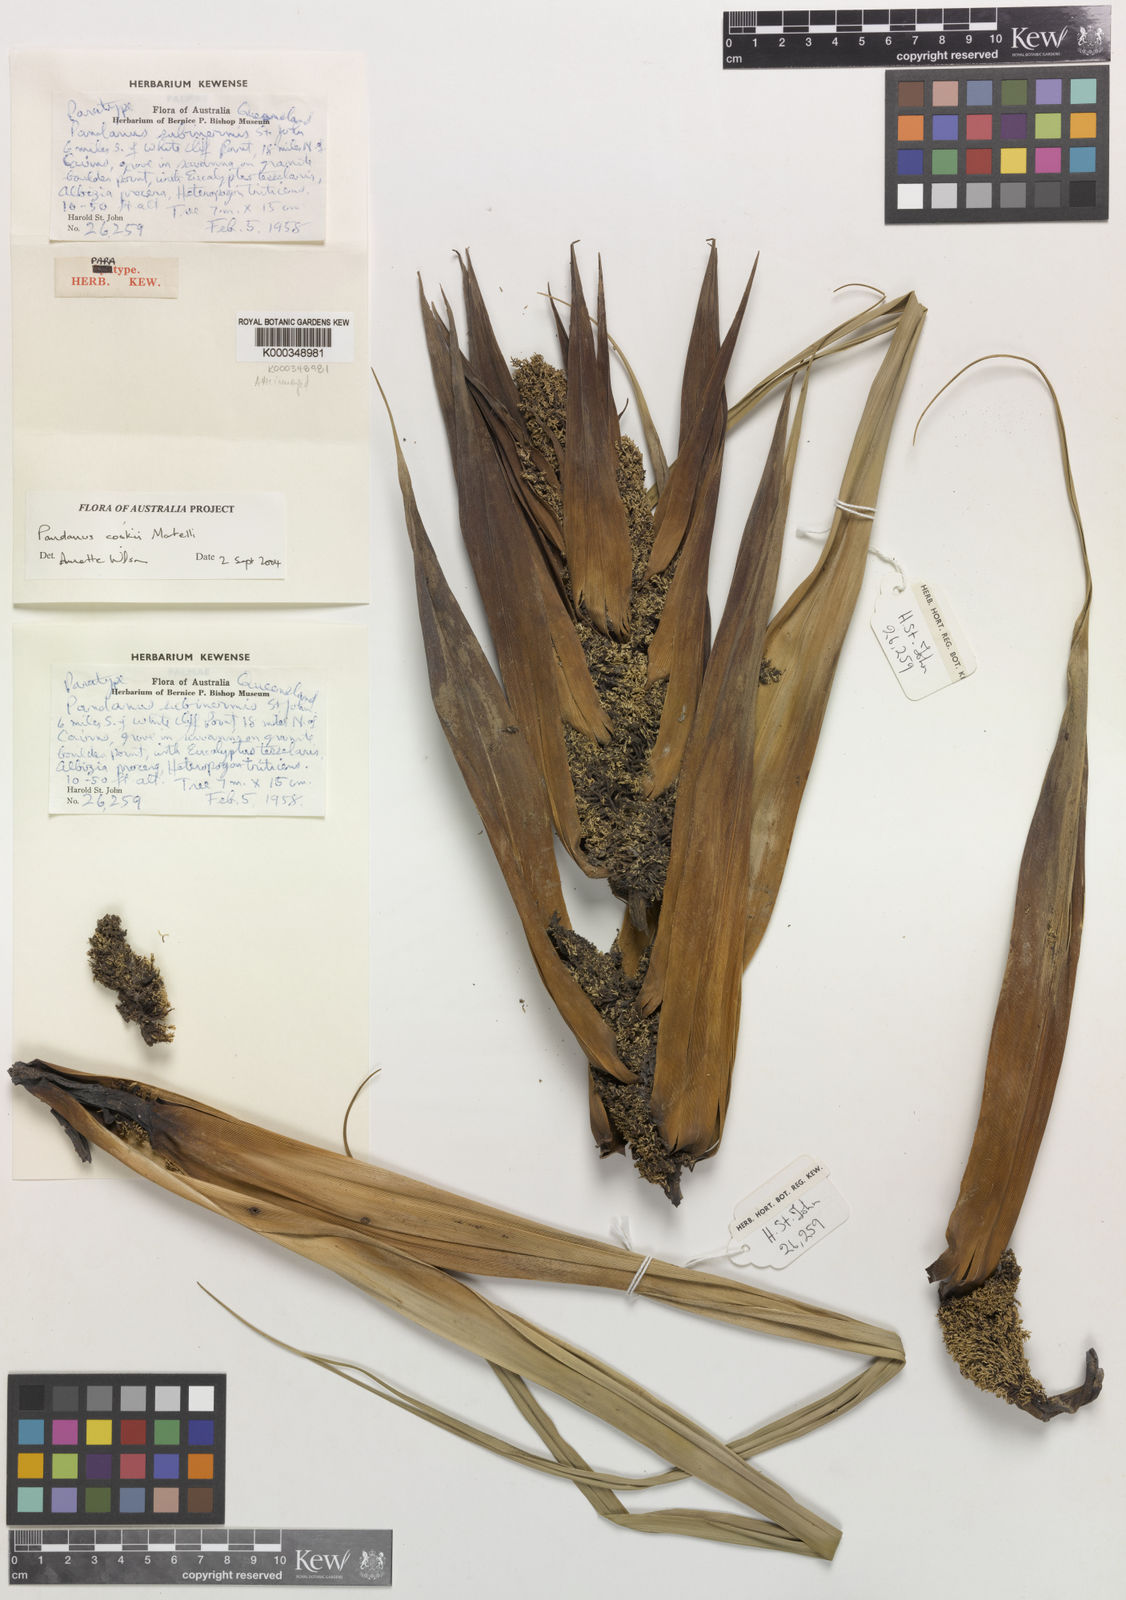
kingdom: Plantae
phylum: Tracheophyta
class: Liliopsida
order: Pandanales
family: Pandanaceae
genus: Pandanus
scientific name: Pandanus cookii
